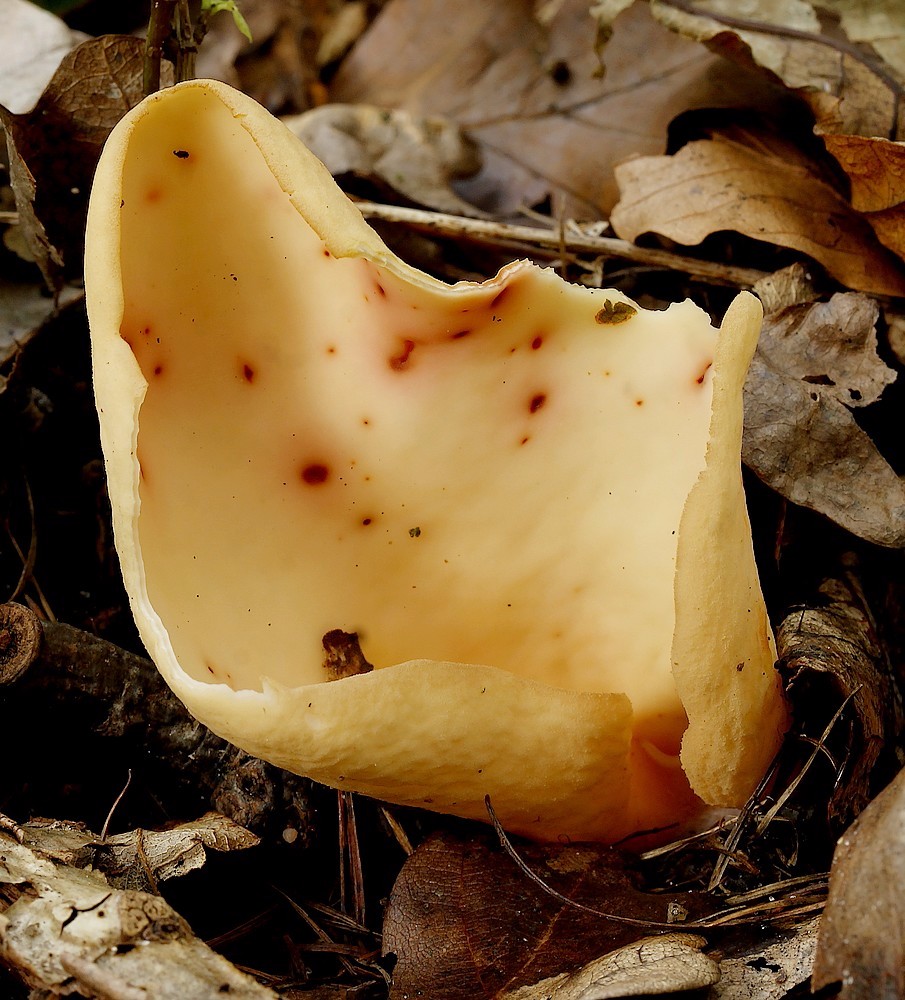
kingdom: Fungi
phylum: Ascomycota
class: Pezizomycetes
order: Pezizales
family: Otideaceae
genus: Otidea
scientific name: Otidea onotica
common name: æsel-ørebæger
